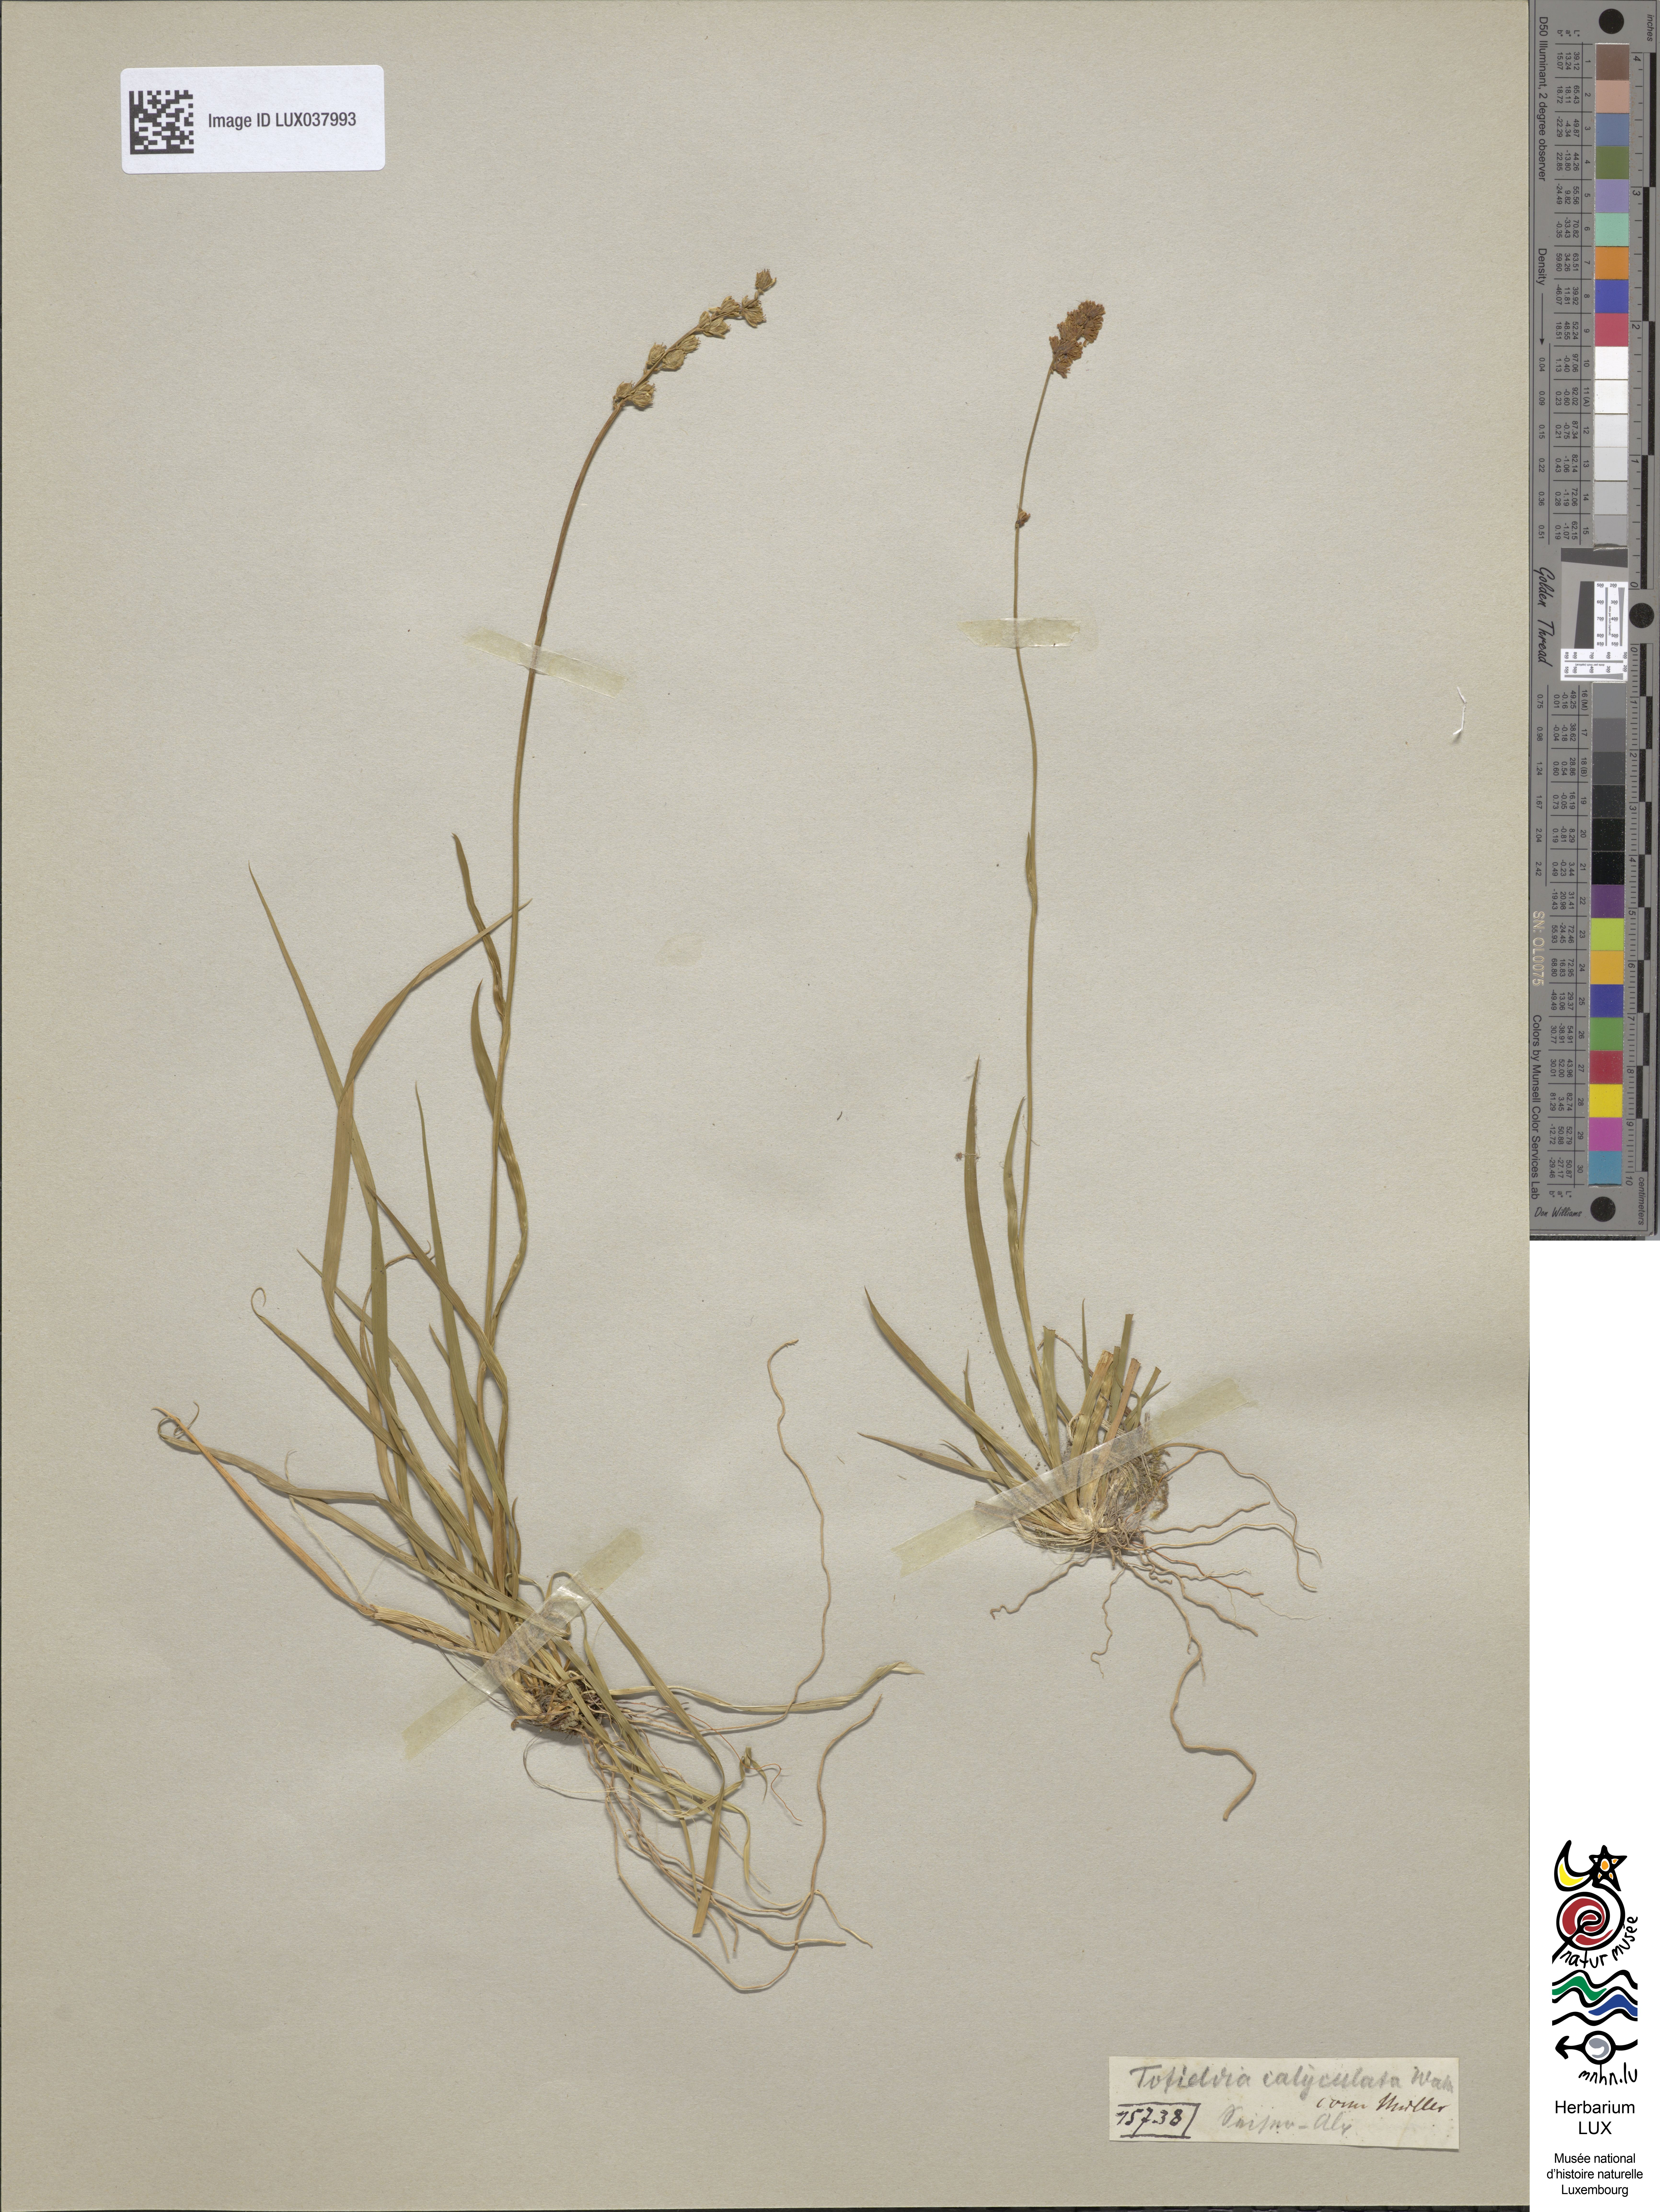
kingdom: Plantae
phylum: Tracheophyta
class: Liliopsida
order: Alismatales
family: Tofieldiaceae
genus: Tofieldia
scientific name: Tofieldia calyculata
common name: German-asphodel
